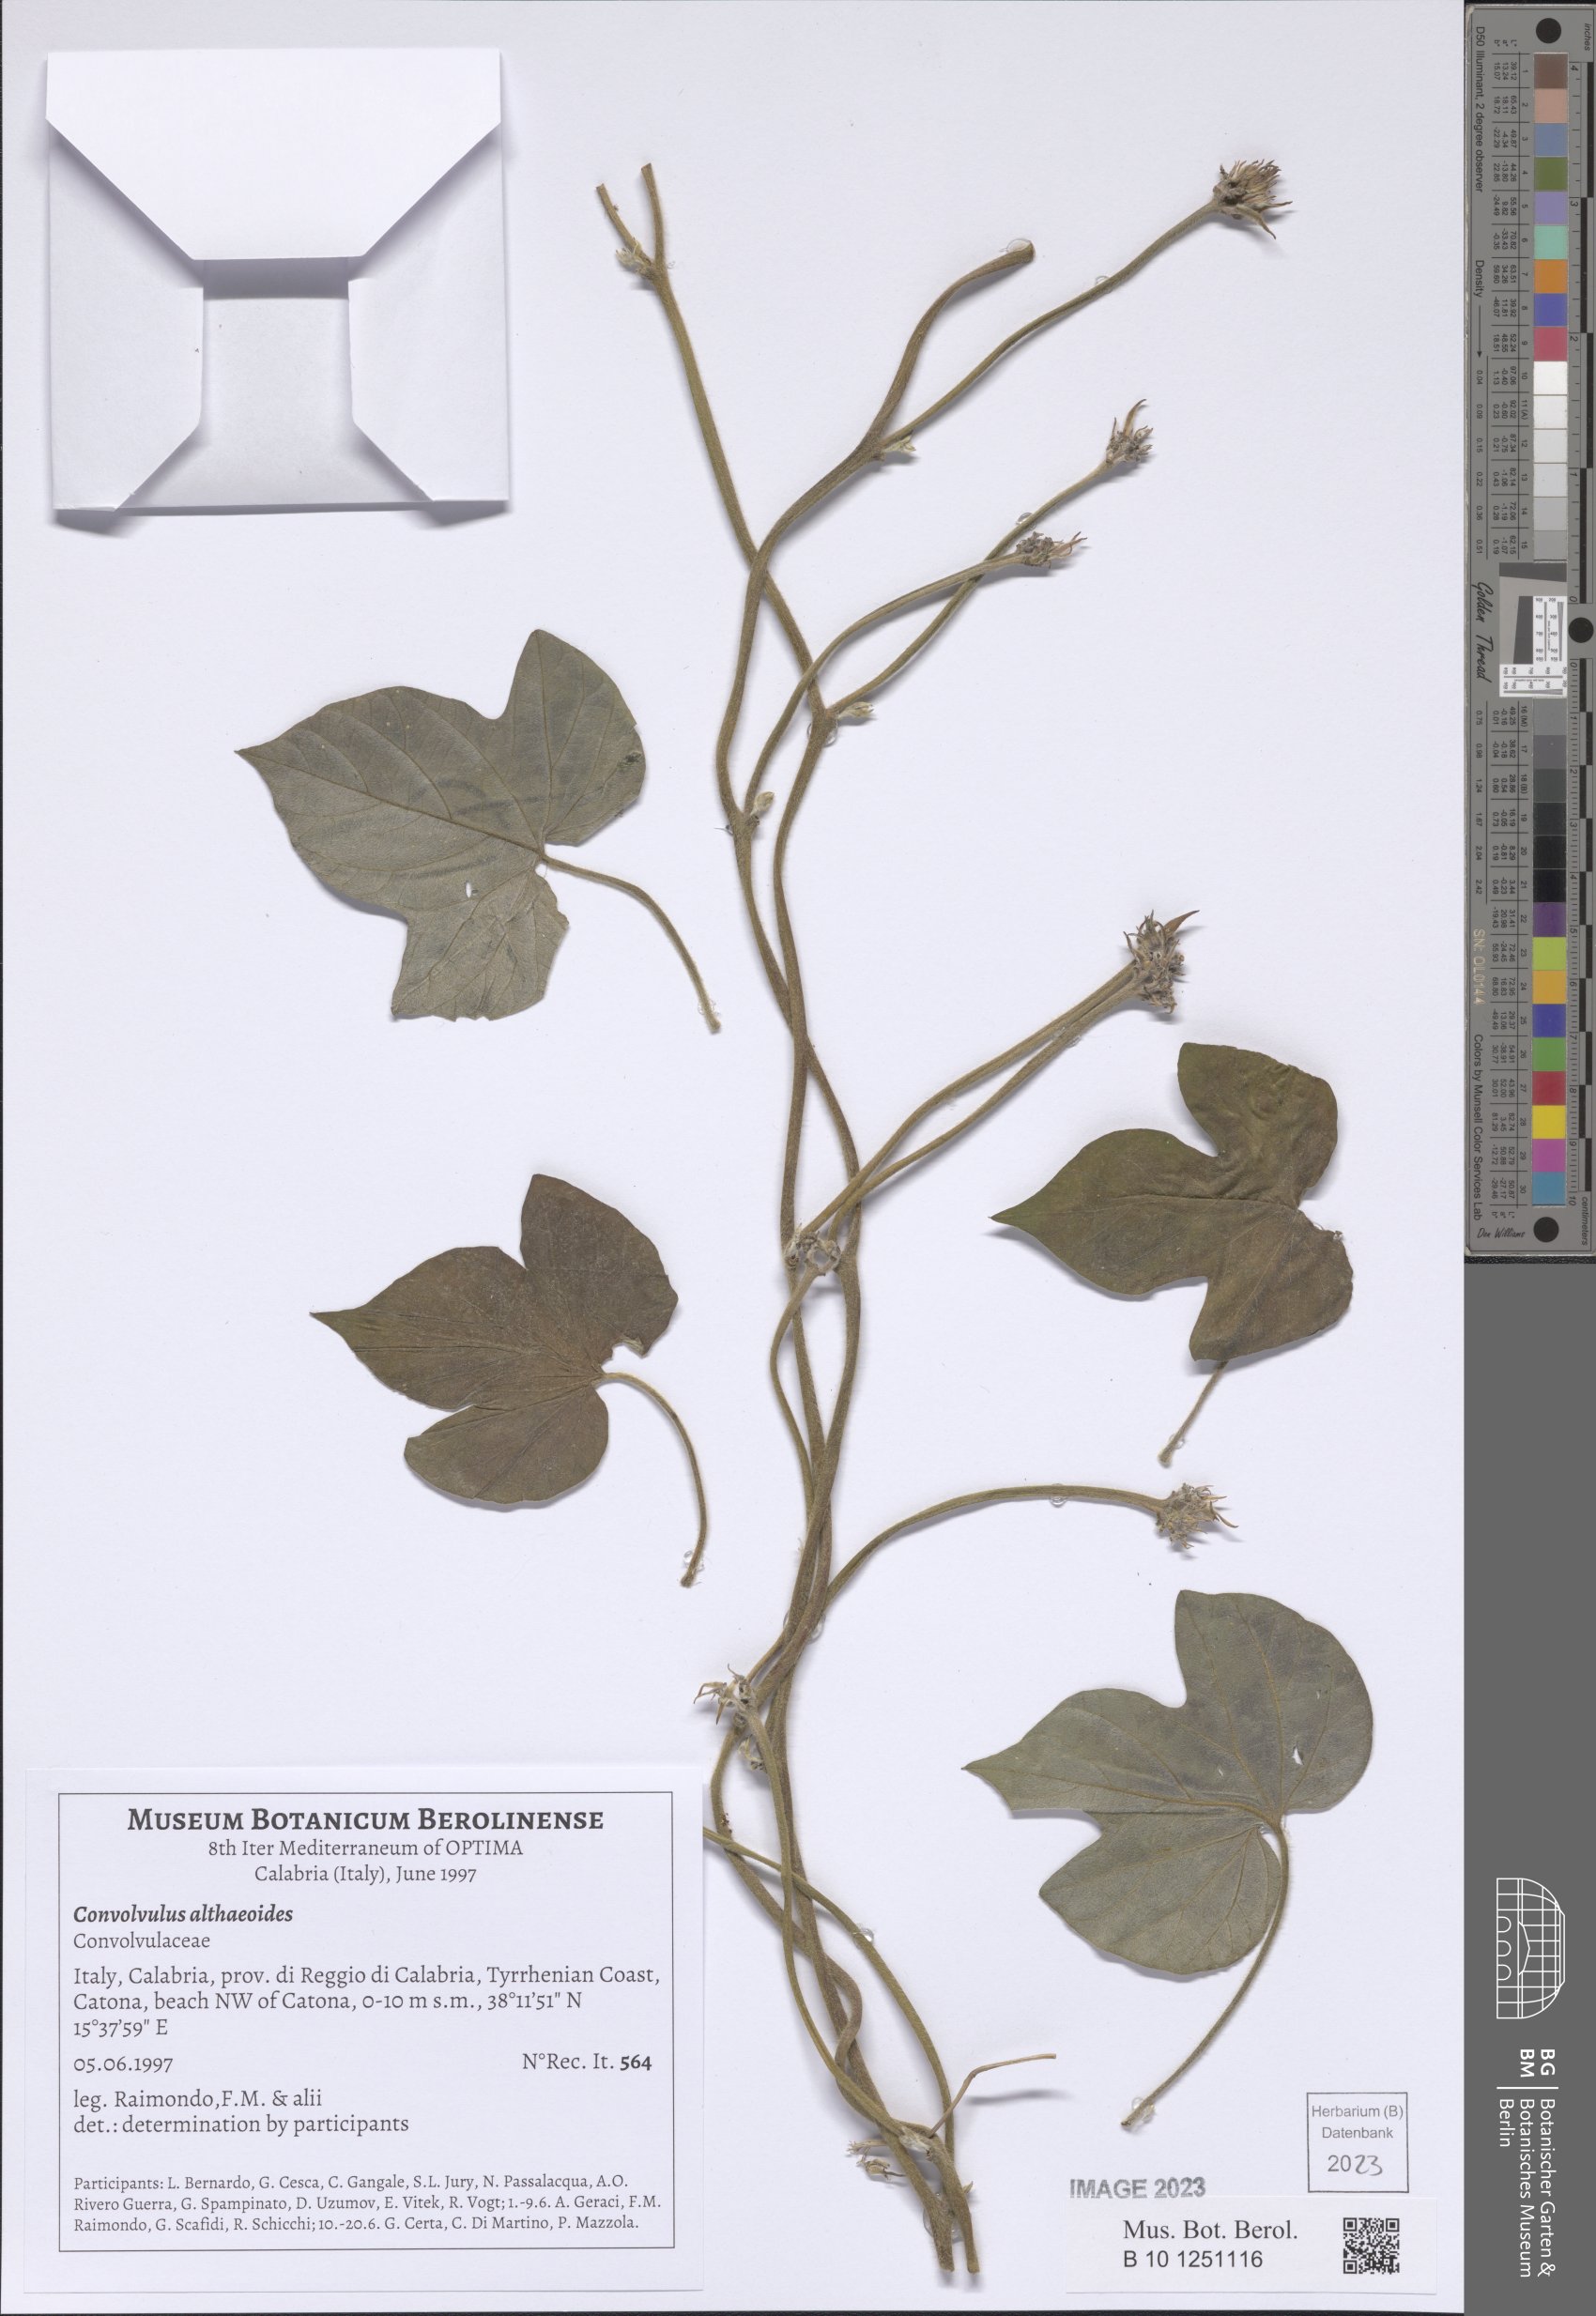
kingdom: Plantae
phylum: Tracheophyta
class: Magnoliopsida
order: Solanales
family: Convolvulaceae
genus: Convolvulus
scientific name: Convolvulus althaeoides
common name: Mallow bindweed
